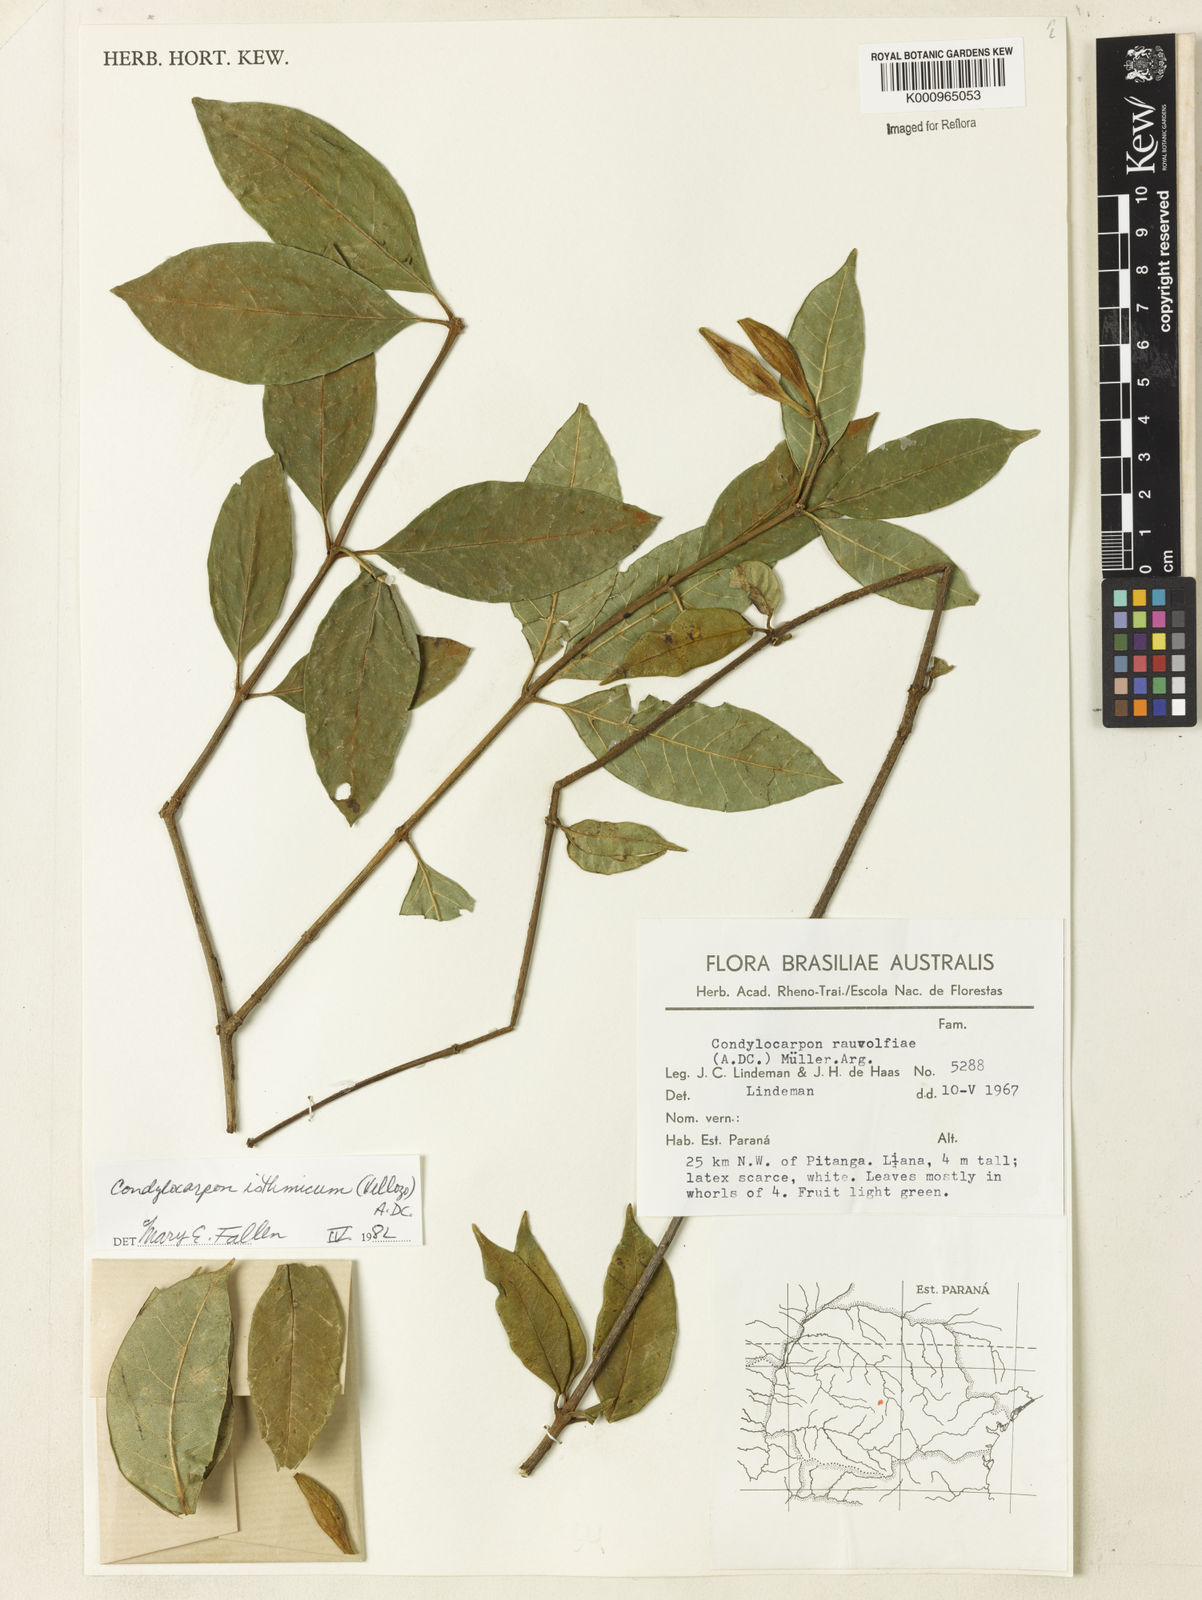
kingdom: Plantae
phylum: Tracheophyta
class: Magnoliopsida
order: Gentianales
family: Apocynaceae
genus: Condylocarpon
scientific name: Condylocarpon isthmicum
